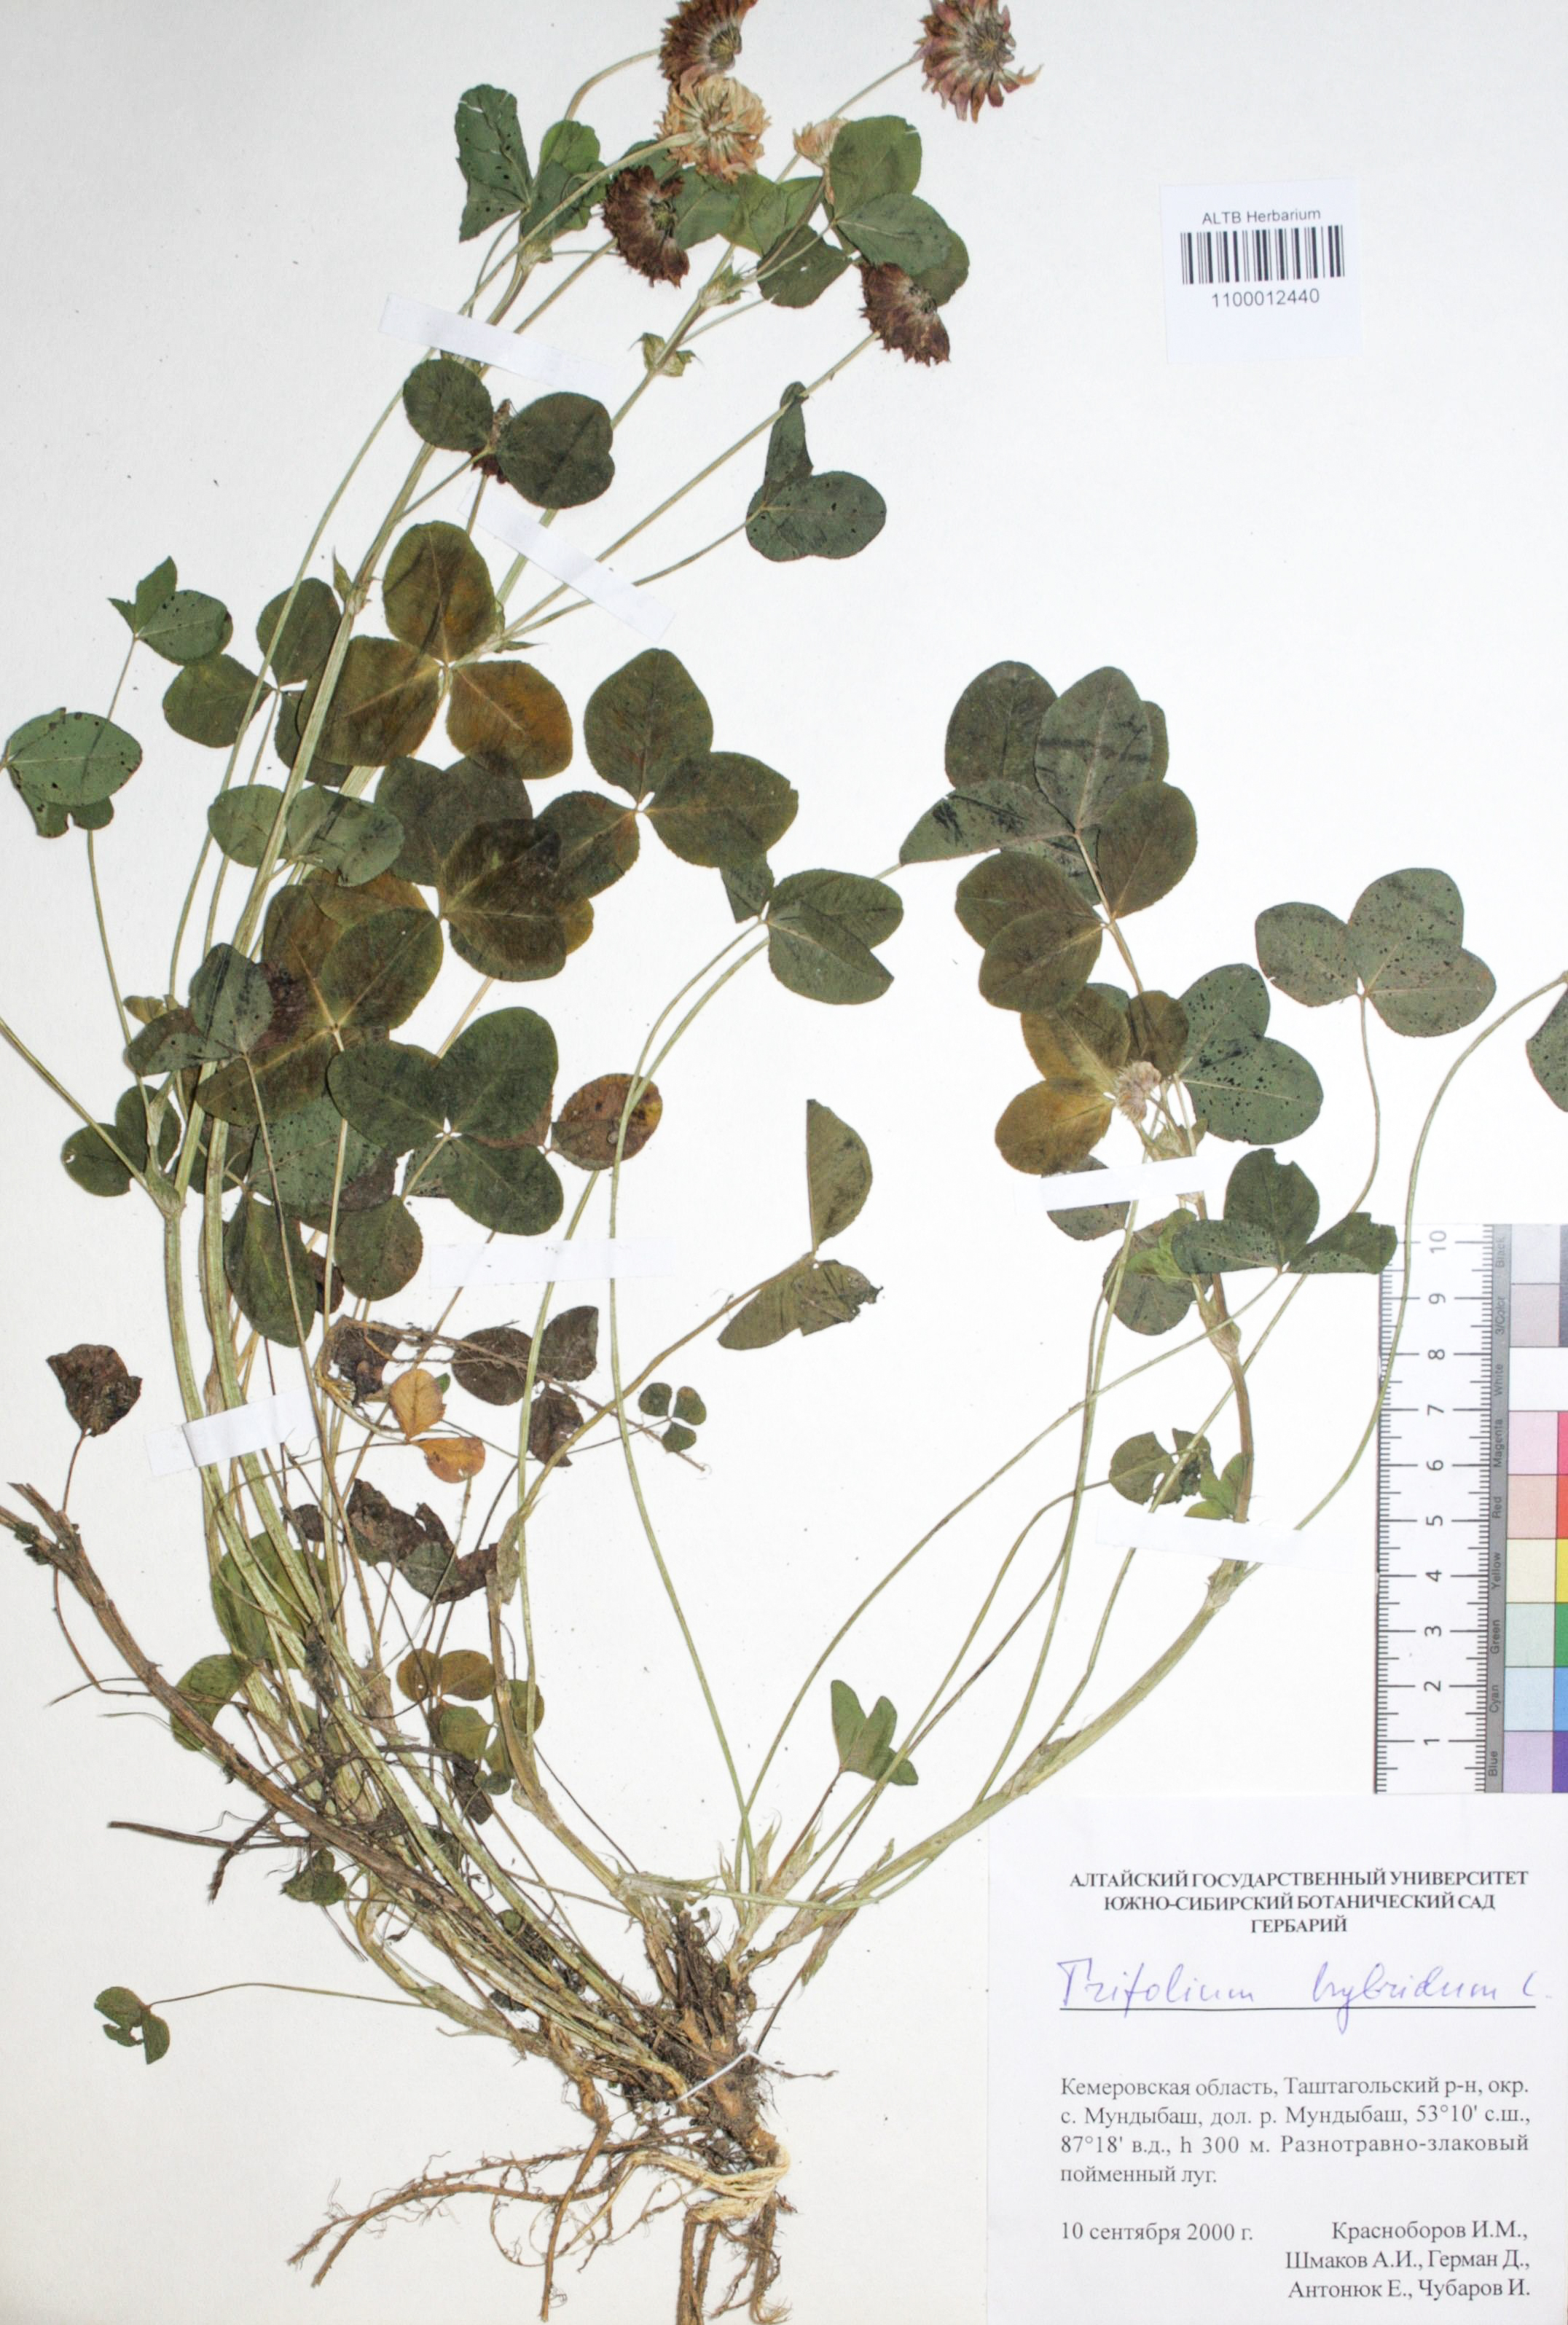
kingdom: Plantae
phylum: Tracheophyta
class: Magnoliopsida
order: Fabales
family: Fabaceae
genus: Trifolium
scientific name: Trifolium hybridum
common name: Alsike clover
